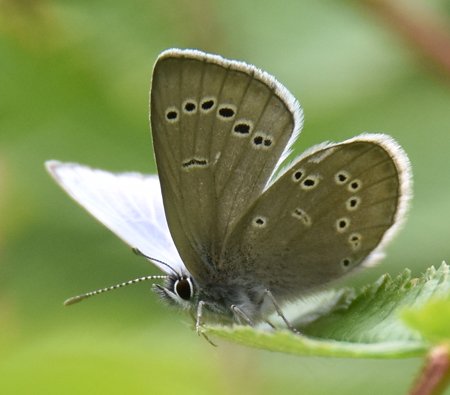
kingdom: Animalia
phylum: Arthropoda
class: Insecta
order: Lepidoptera
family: Lycaenidae
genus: Glaucopsyche
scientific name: Glaucopsyche lygdamus
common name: Silvery Blue
